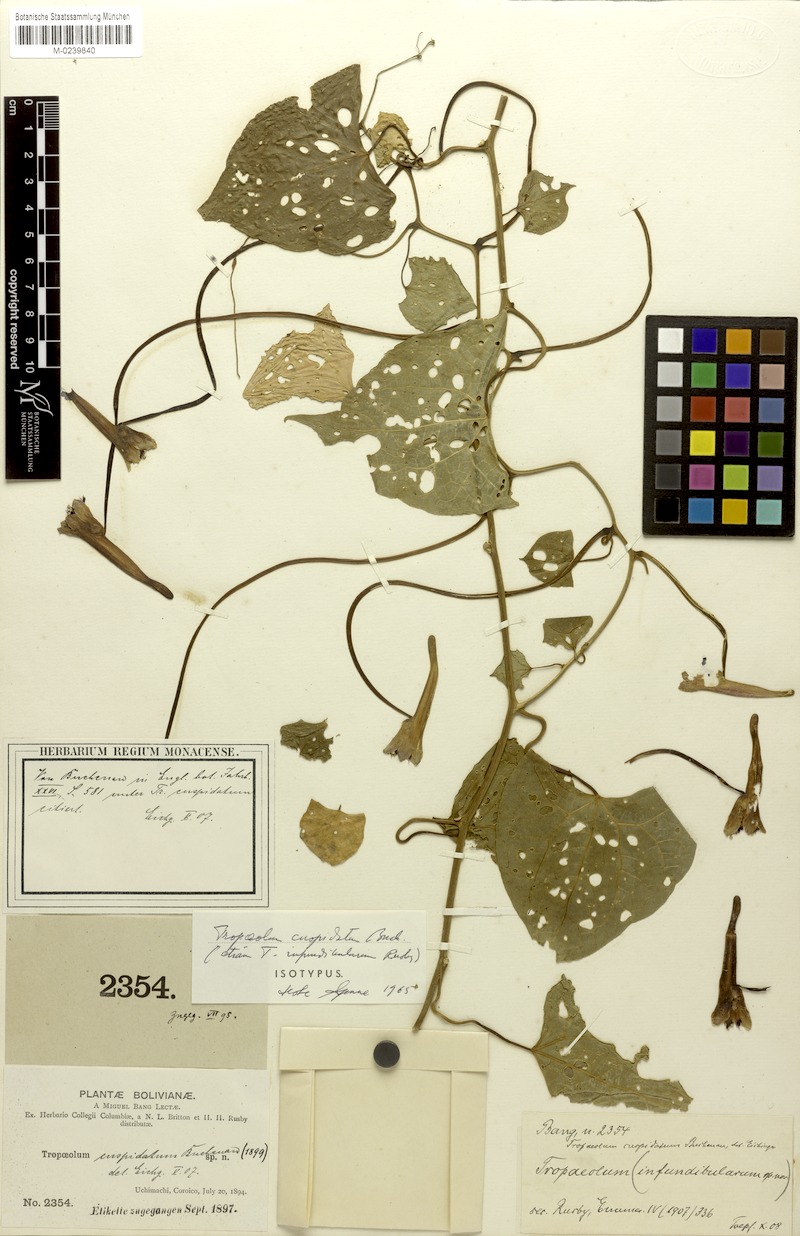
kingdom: Plantae
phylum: Tracheophyta
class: Magnoliopsida
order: Brassicales
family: Tropaeolaceae
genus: Tropaeolum
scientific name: Tropaeolum cuspidatum
